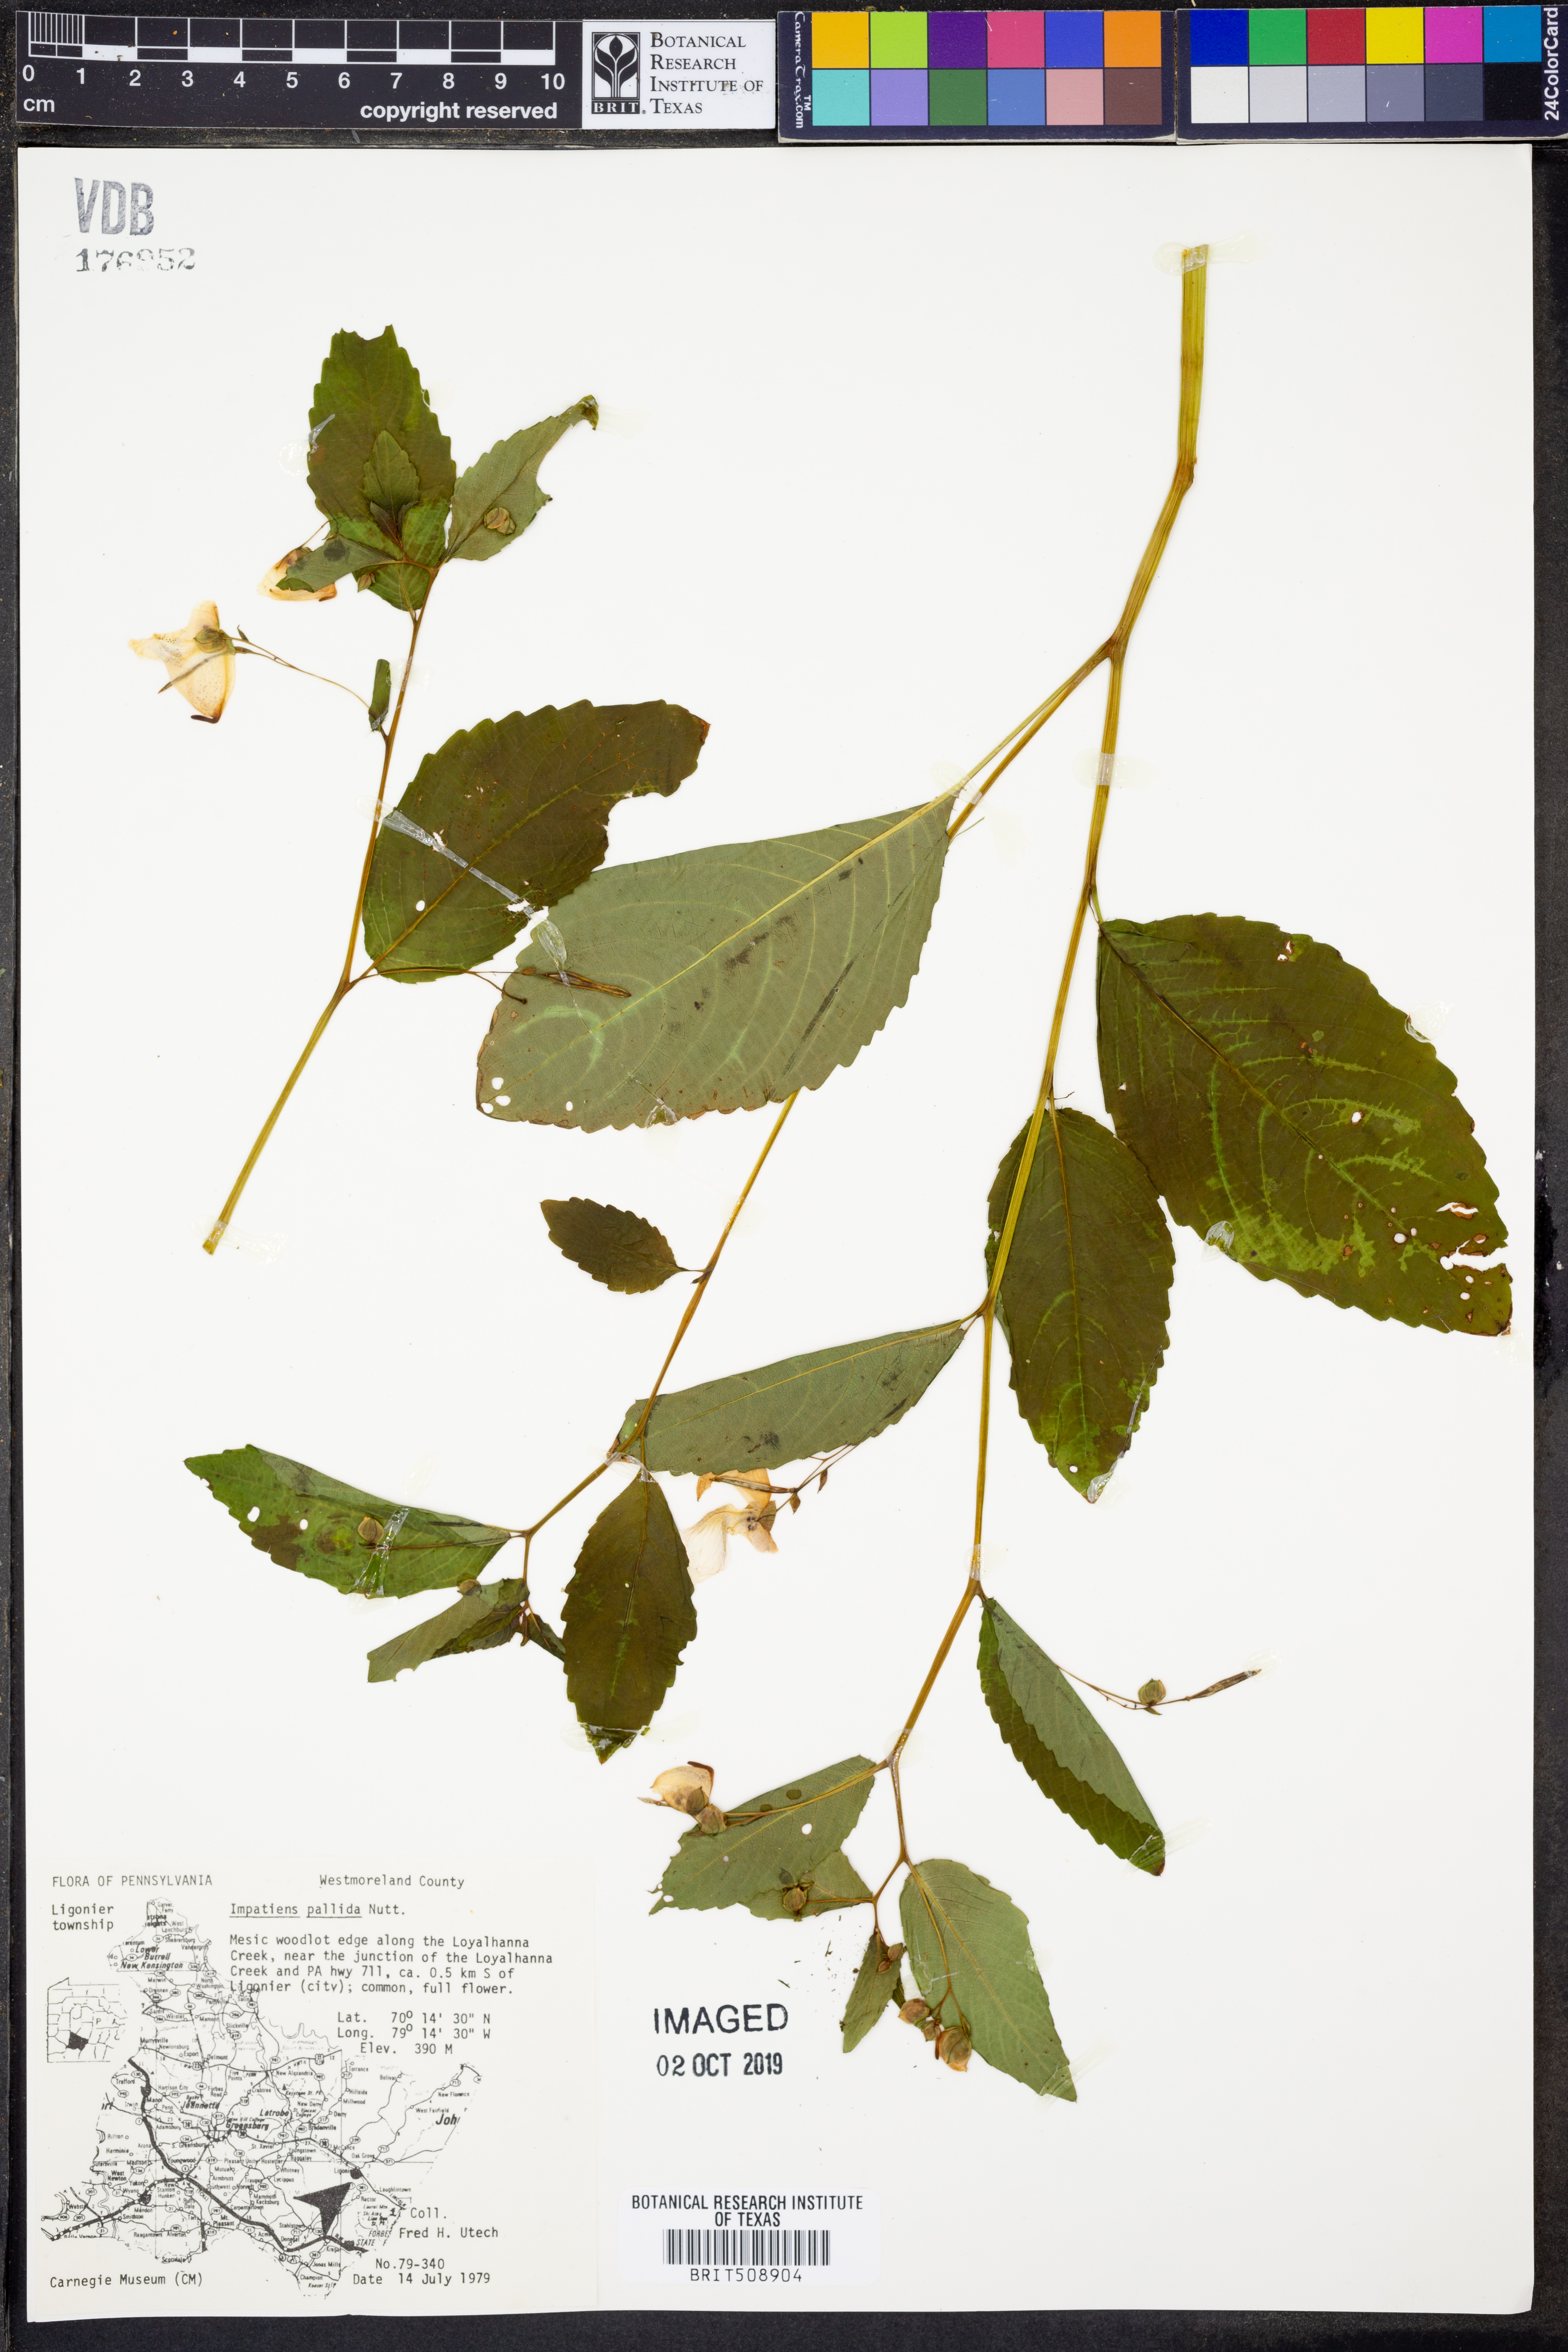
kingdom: Plantae
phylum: Tracheophyta
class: Magnoliopsida
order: Ericales
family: Balsaminaceae
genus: Impatiens
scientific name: Impatiens pallida
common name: Pale snapweed
